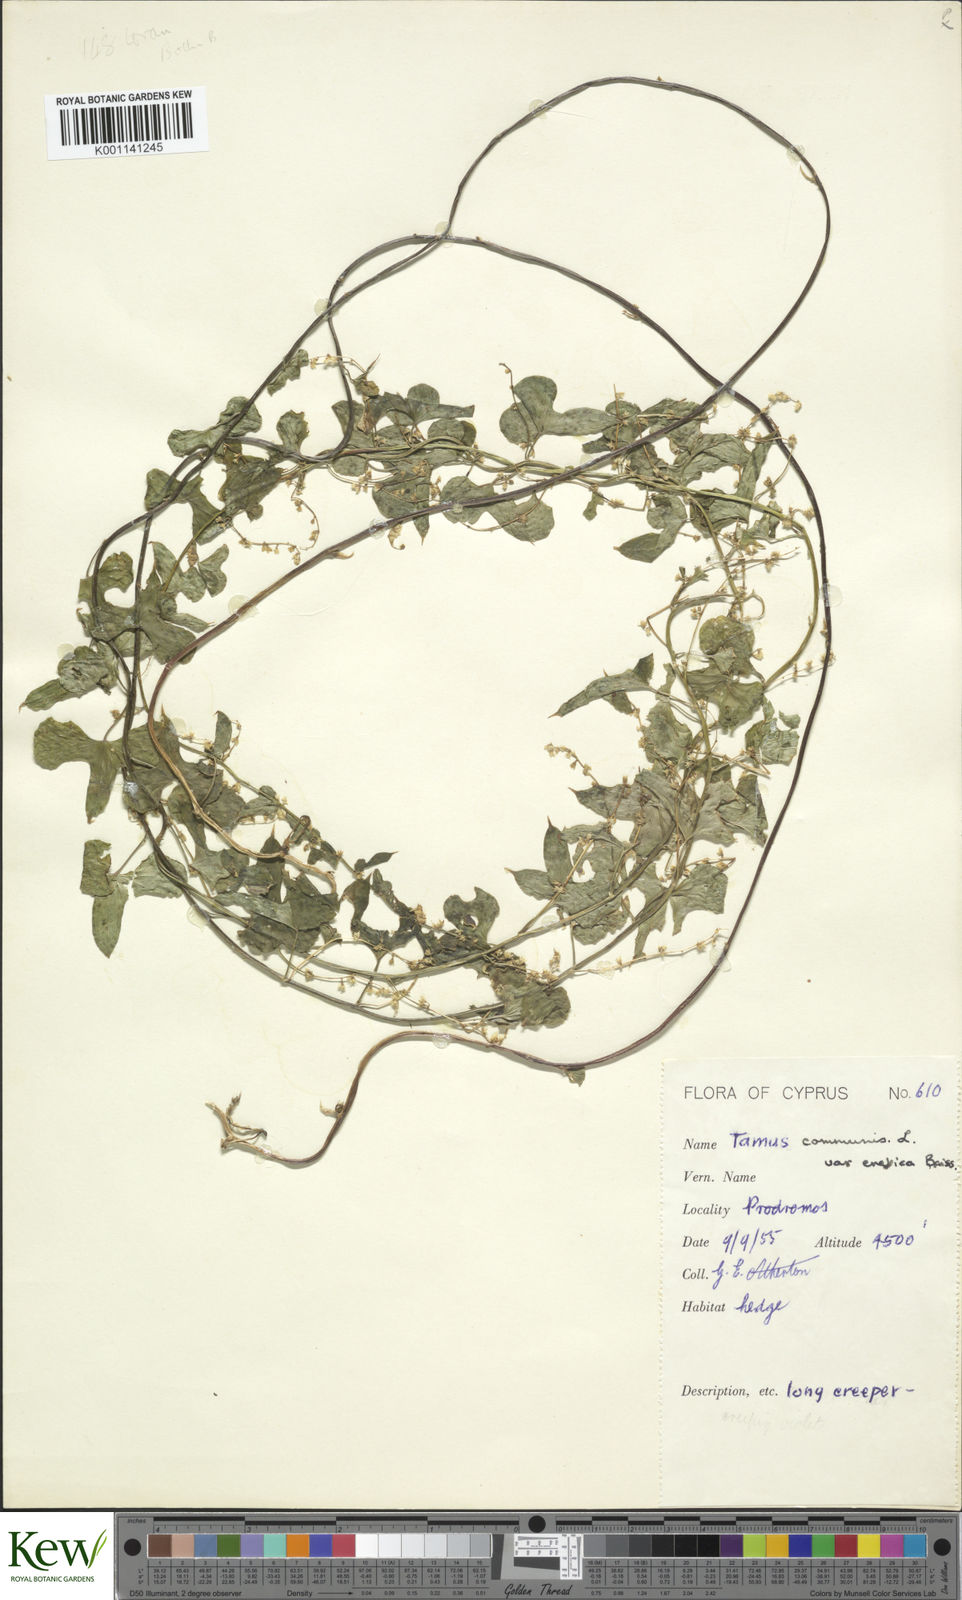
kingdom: Plantae
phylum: Tracheophyta
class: Liliopsida
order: Dioscoreales
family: Dioscoreaceae
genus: Dioscorea
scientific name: Dioscorea communis
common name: Black-bindweed
